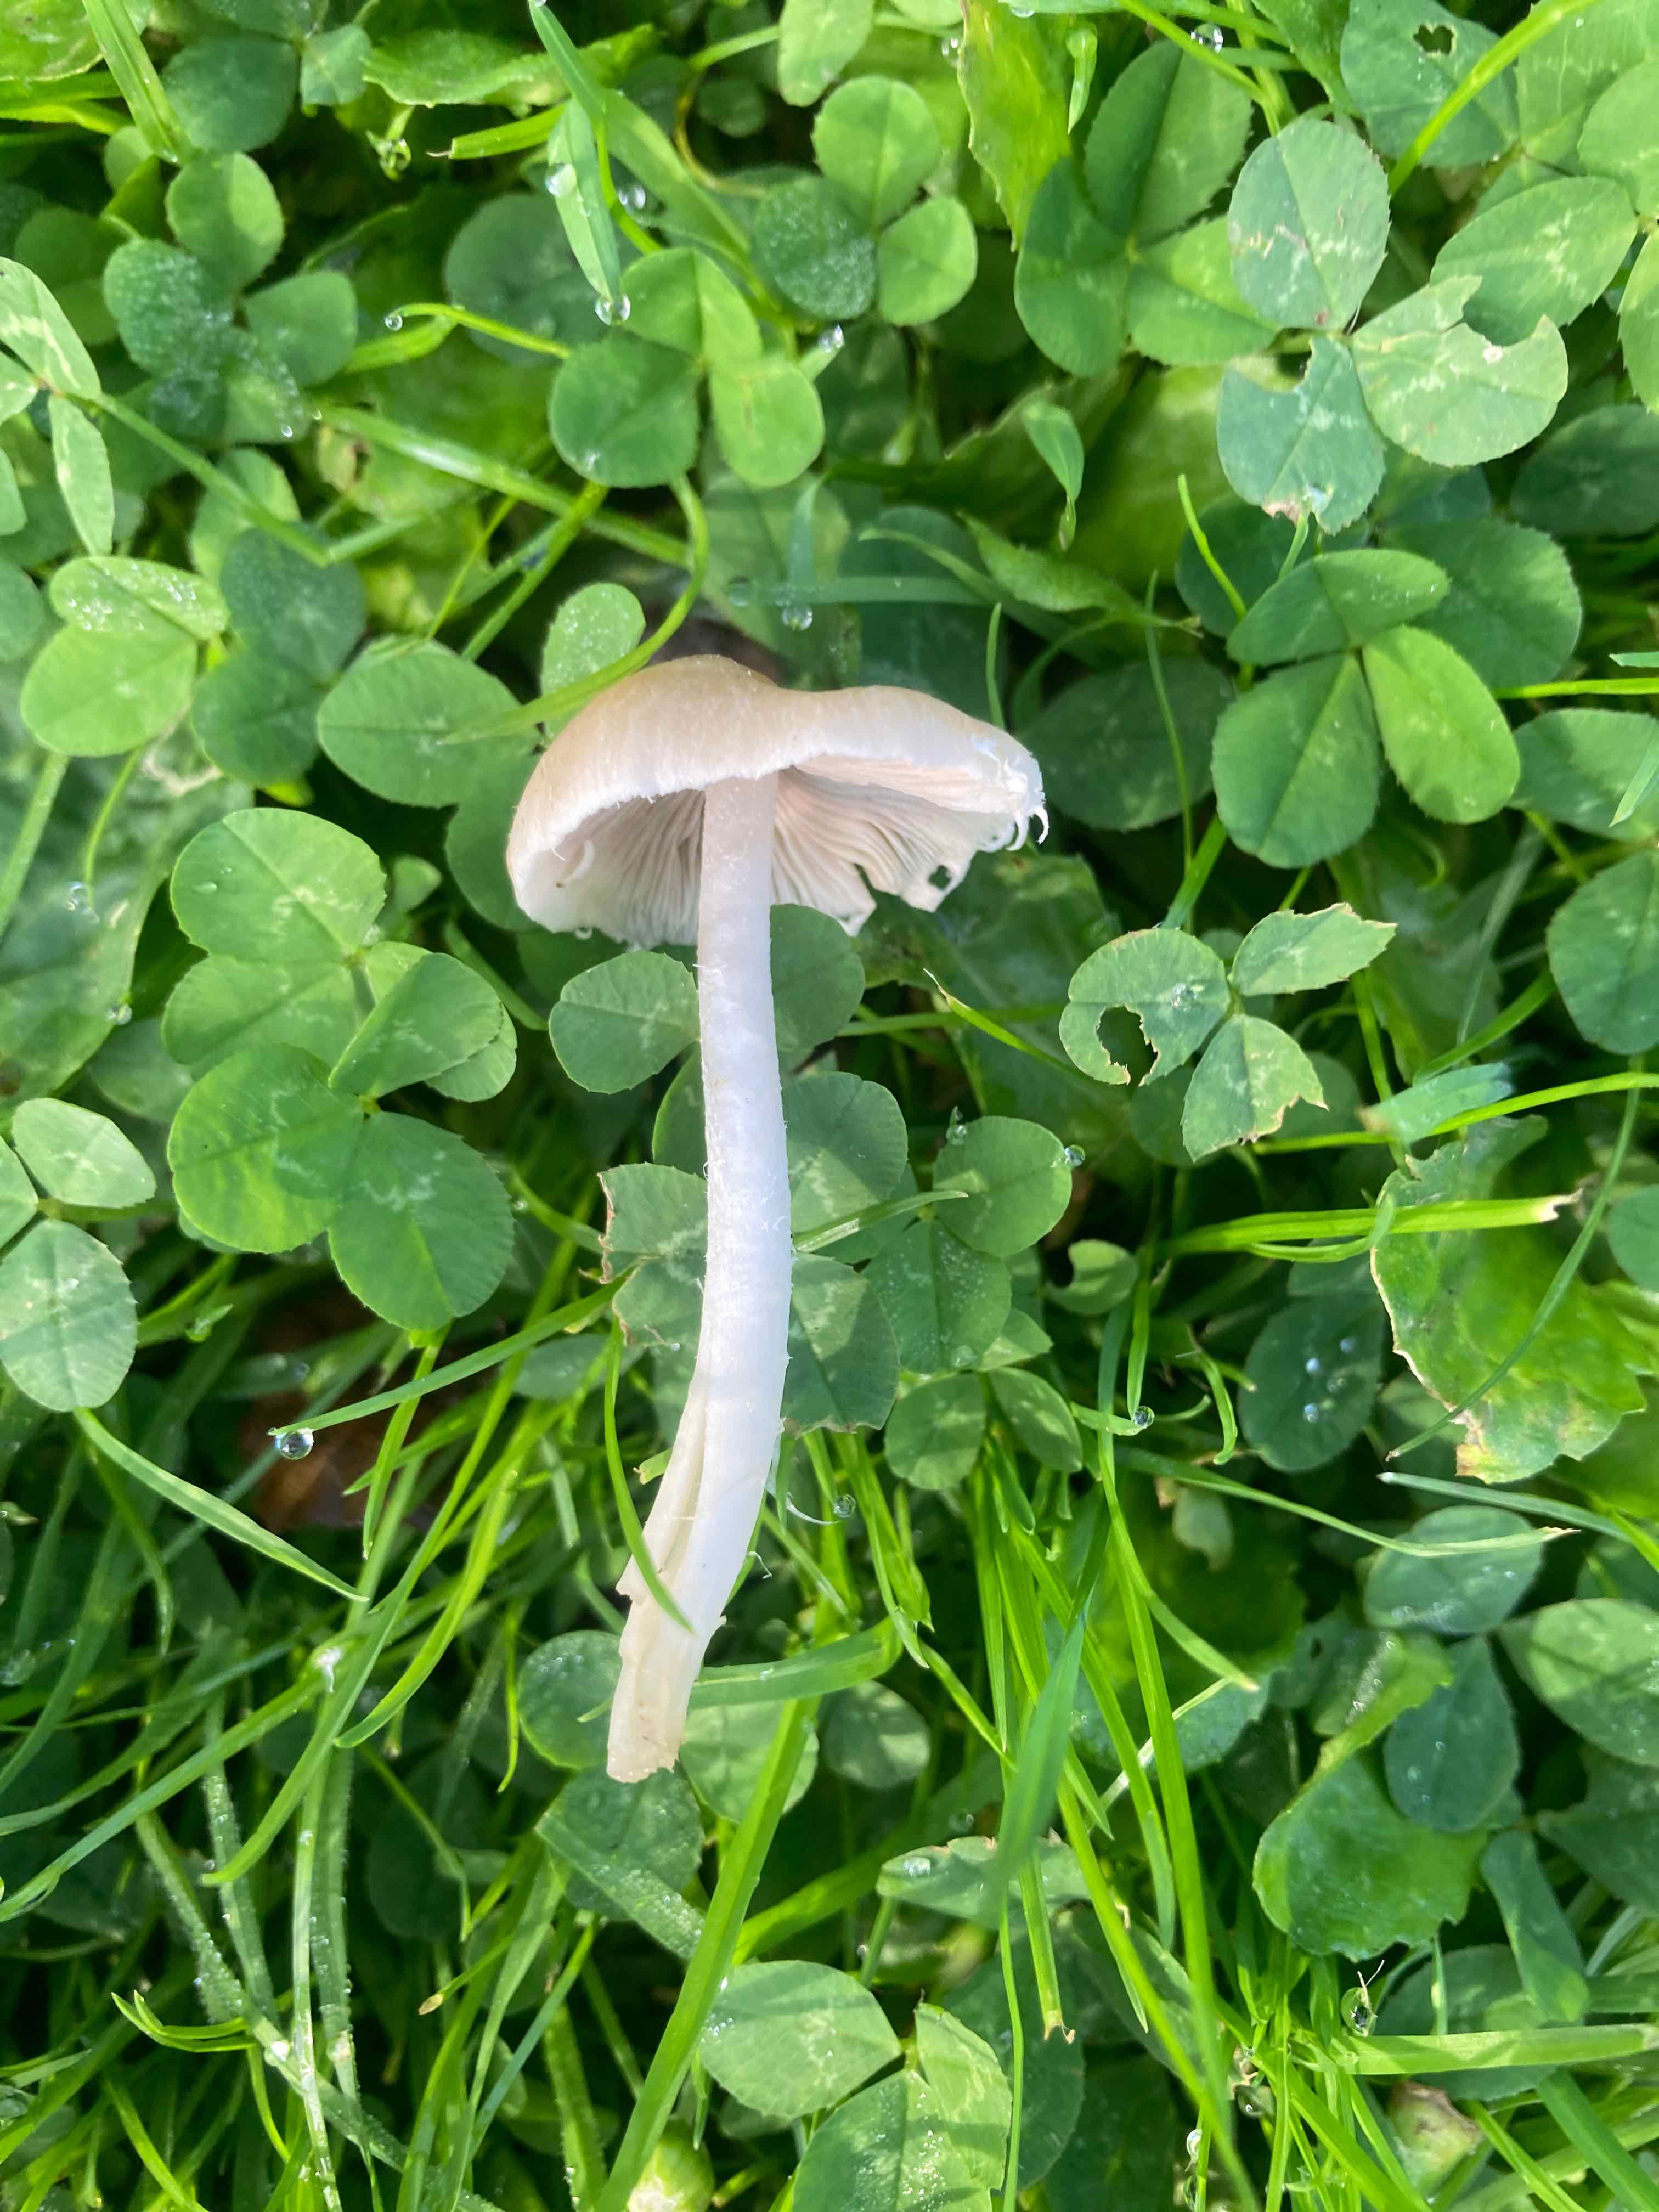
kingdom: Fungi
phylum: Basidiomycota
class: Agaricomycetes
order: Agaricales
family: Psathyrellaceae
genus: Candolleomyces
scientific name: Candolleomyces candolleanus
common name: Candolles mørkhat
